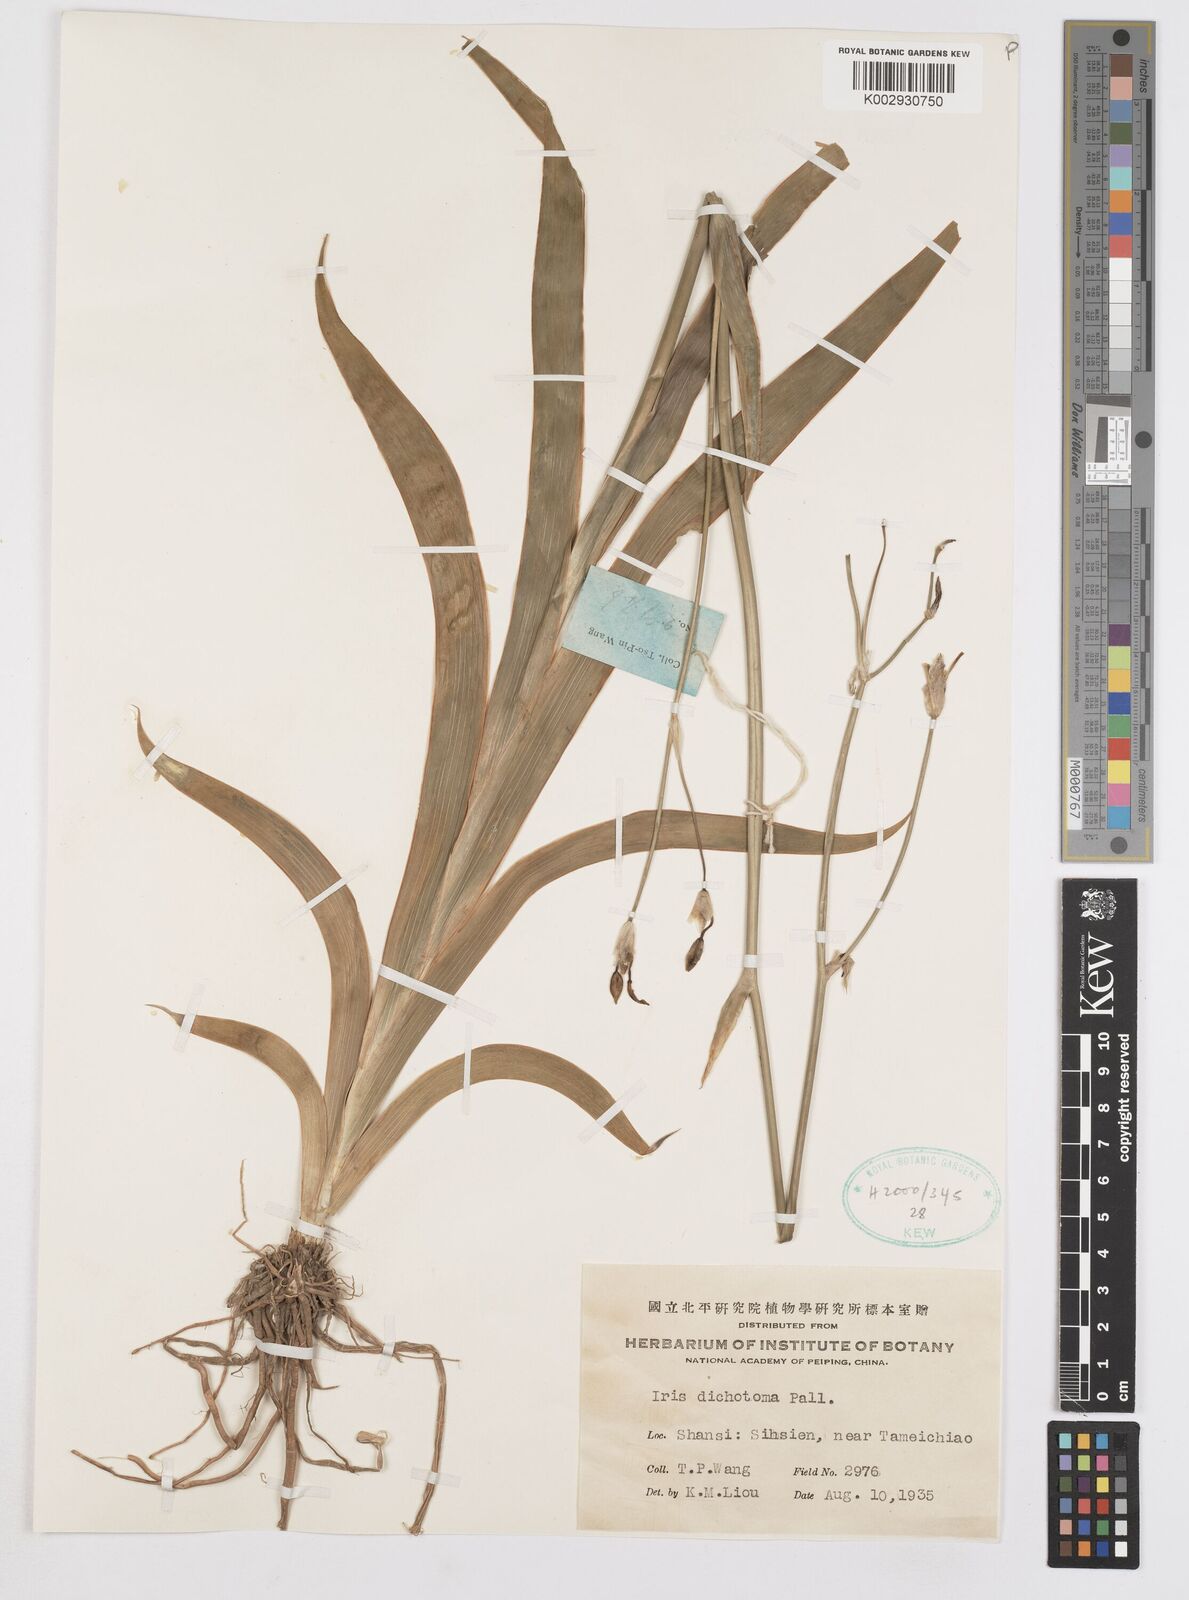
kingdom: Plantae
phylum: Tracheophyta
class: Liliopsida
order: Asparagales
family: Iridaceae
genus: Iris
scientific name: Iris dichotoma
